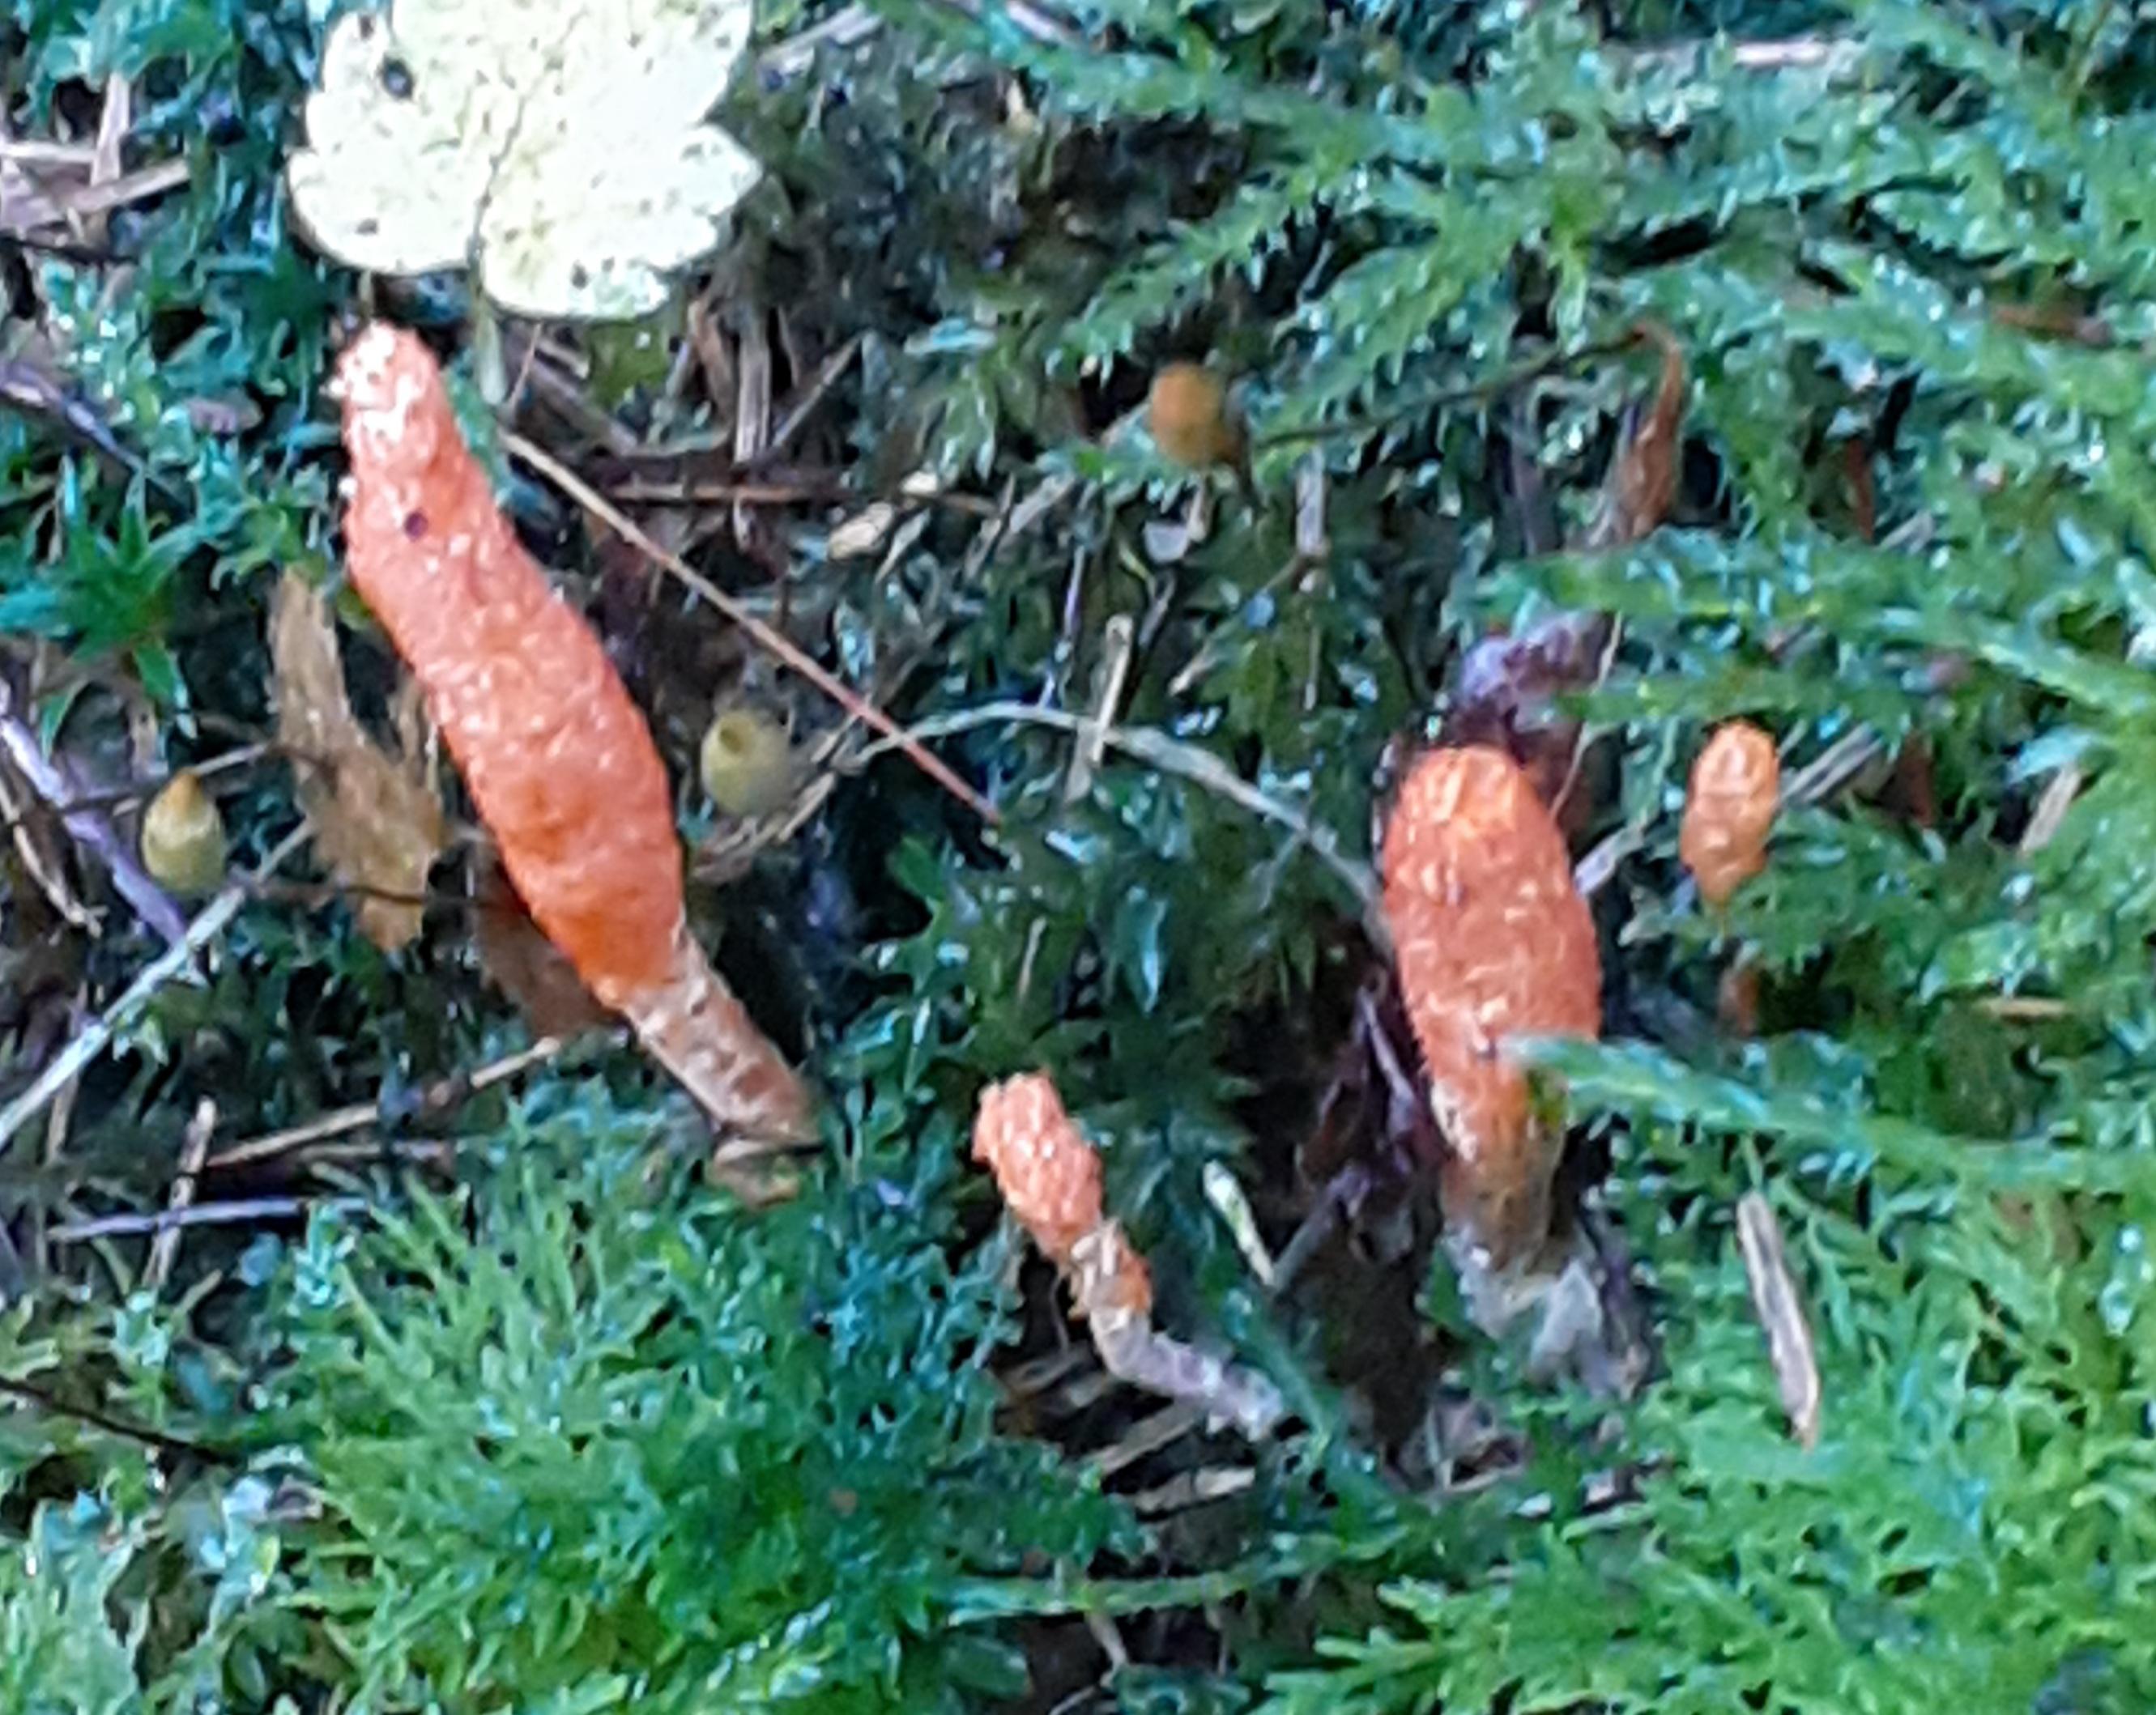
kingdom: Fungi
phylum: Ascomycota
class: Sordariomycetes
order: Hypocreales
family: Cordycipitaceae
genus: Cordyceps
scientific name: Cordyceps militaris
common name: puppe-snyltekølle
